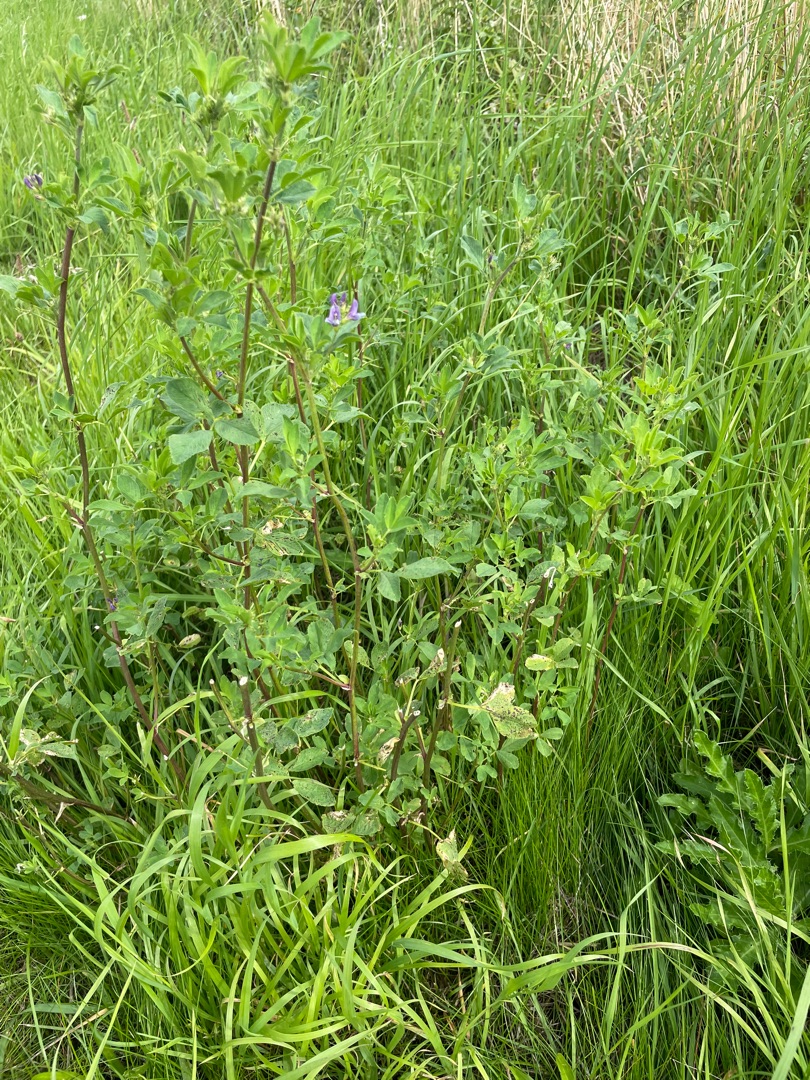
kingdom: Plantae
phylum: Tracheophyta
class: Magnoliopsida
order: Fabales
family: Fabaceae
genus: Medicago
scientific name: Medicago sativa
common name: Foderlucerne
